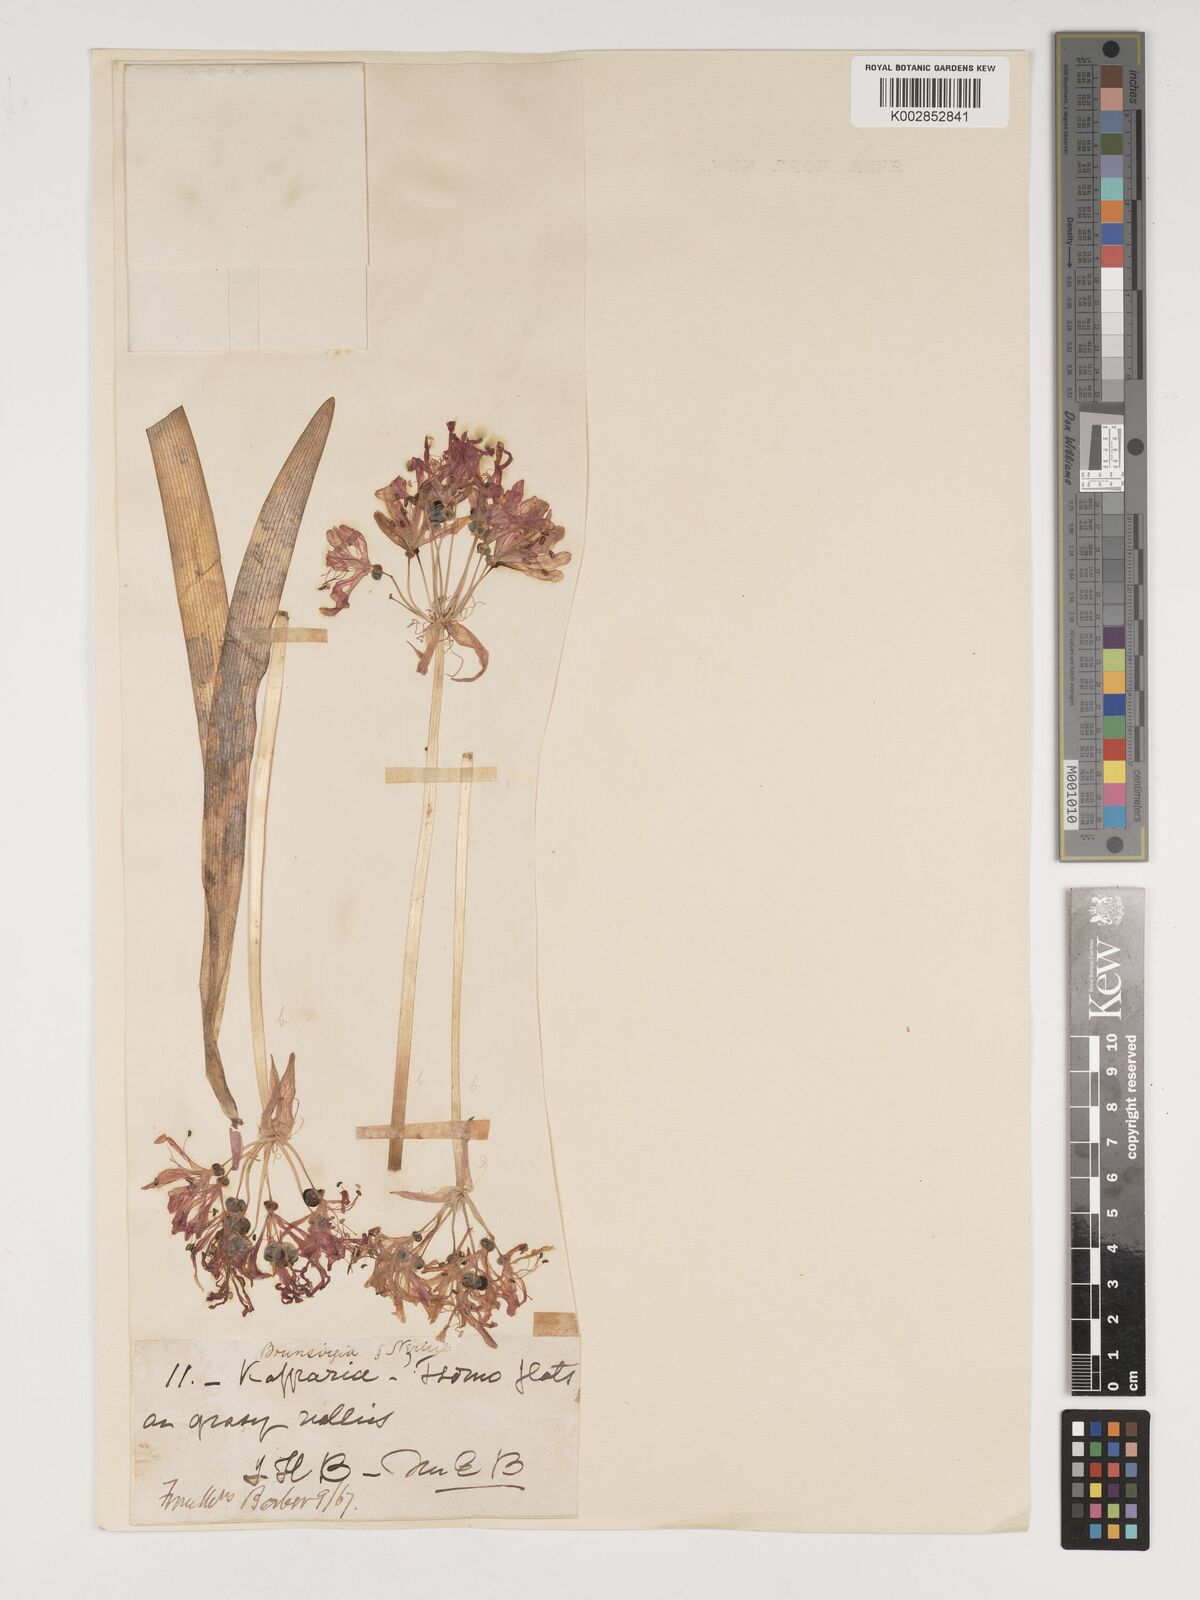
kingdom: Plantae
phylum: Tracheophyta
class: Liliopsida
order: Asparagales
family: Amaryllidaceae
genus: Nerine
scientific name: Nerine
